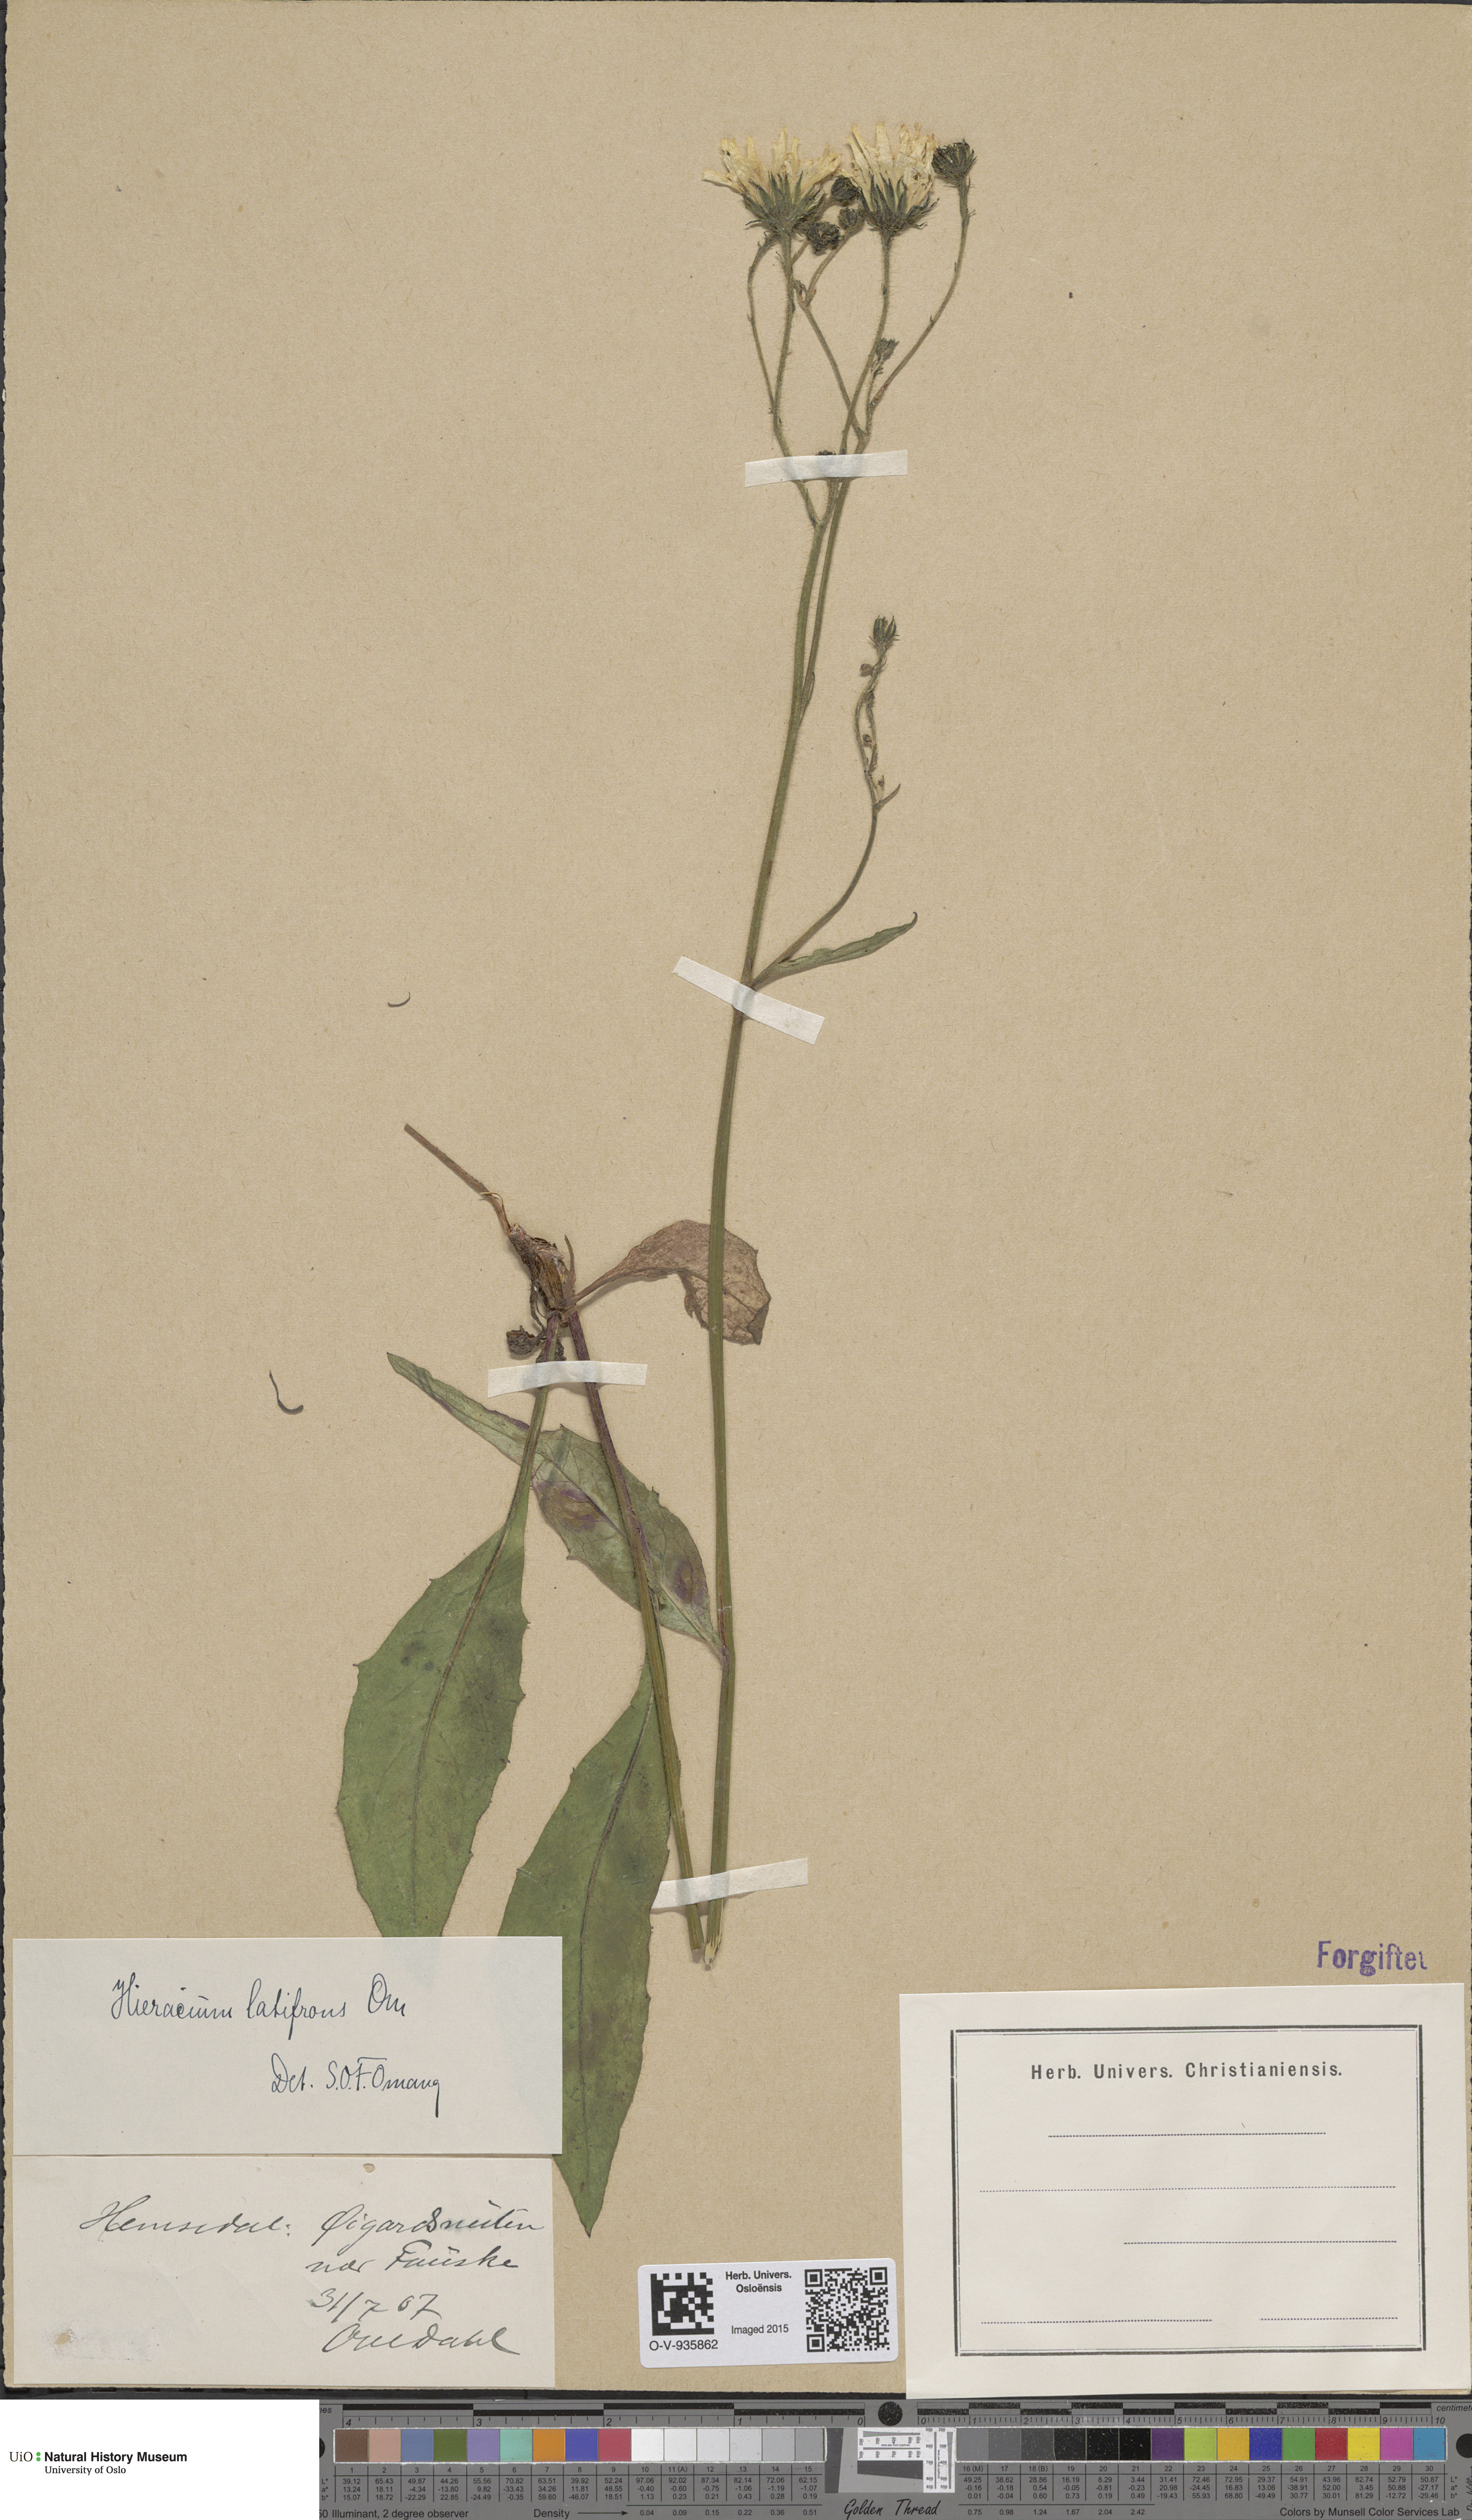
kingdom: Plantae
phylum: Tracheophyta
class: Magnoliopsida
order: Asterales
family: Asteraceae
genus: Hieracium
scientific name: Hieracium saxifragum
